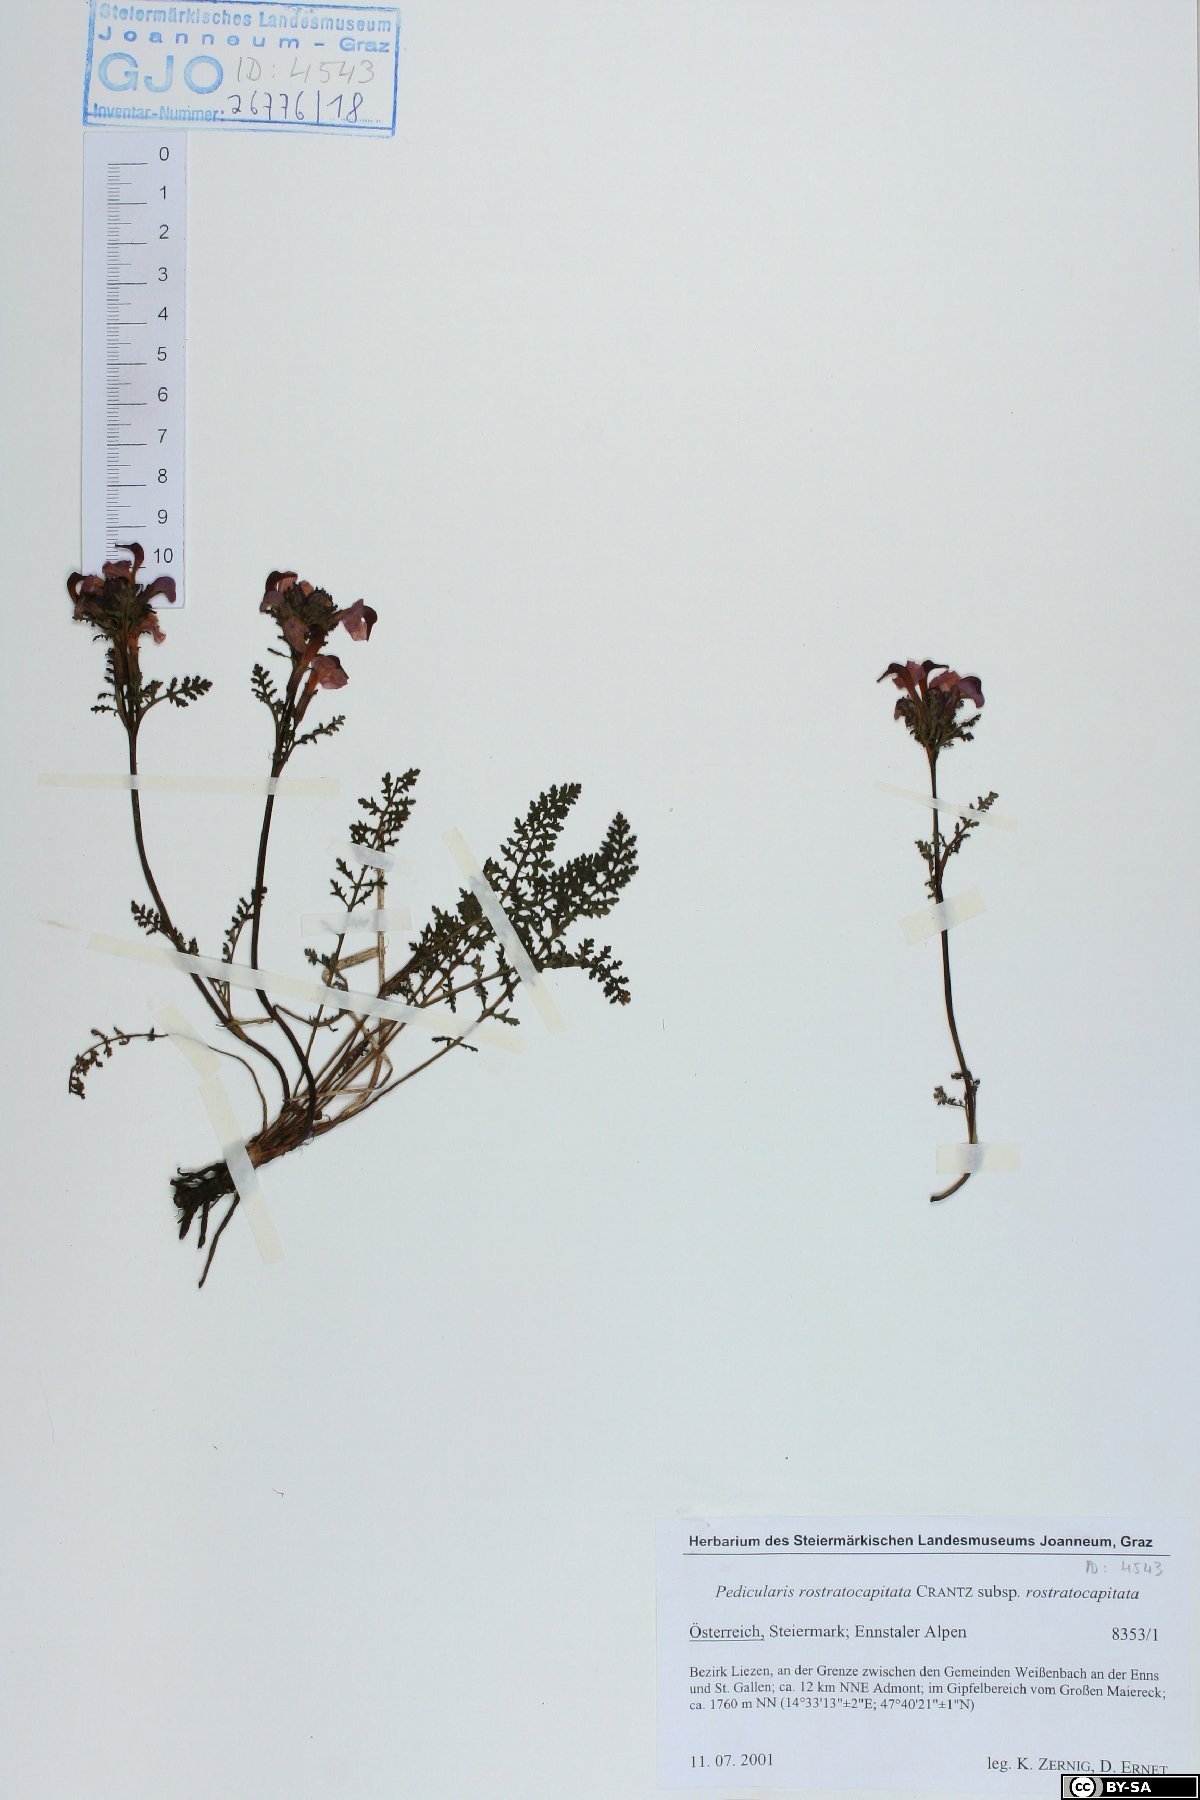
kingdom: Plantae
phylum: Tracheophyta
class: Magnoliopsida
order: Lamiales
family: Orobanchaceae
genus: Pedicularis
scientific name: Pedicularis rostratocapitata
